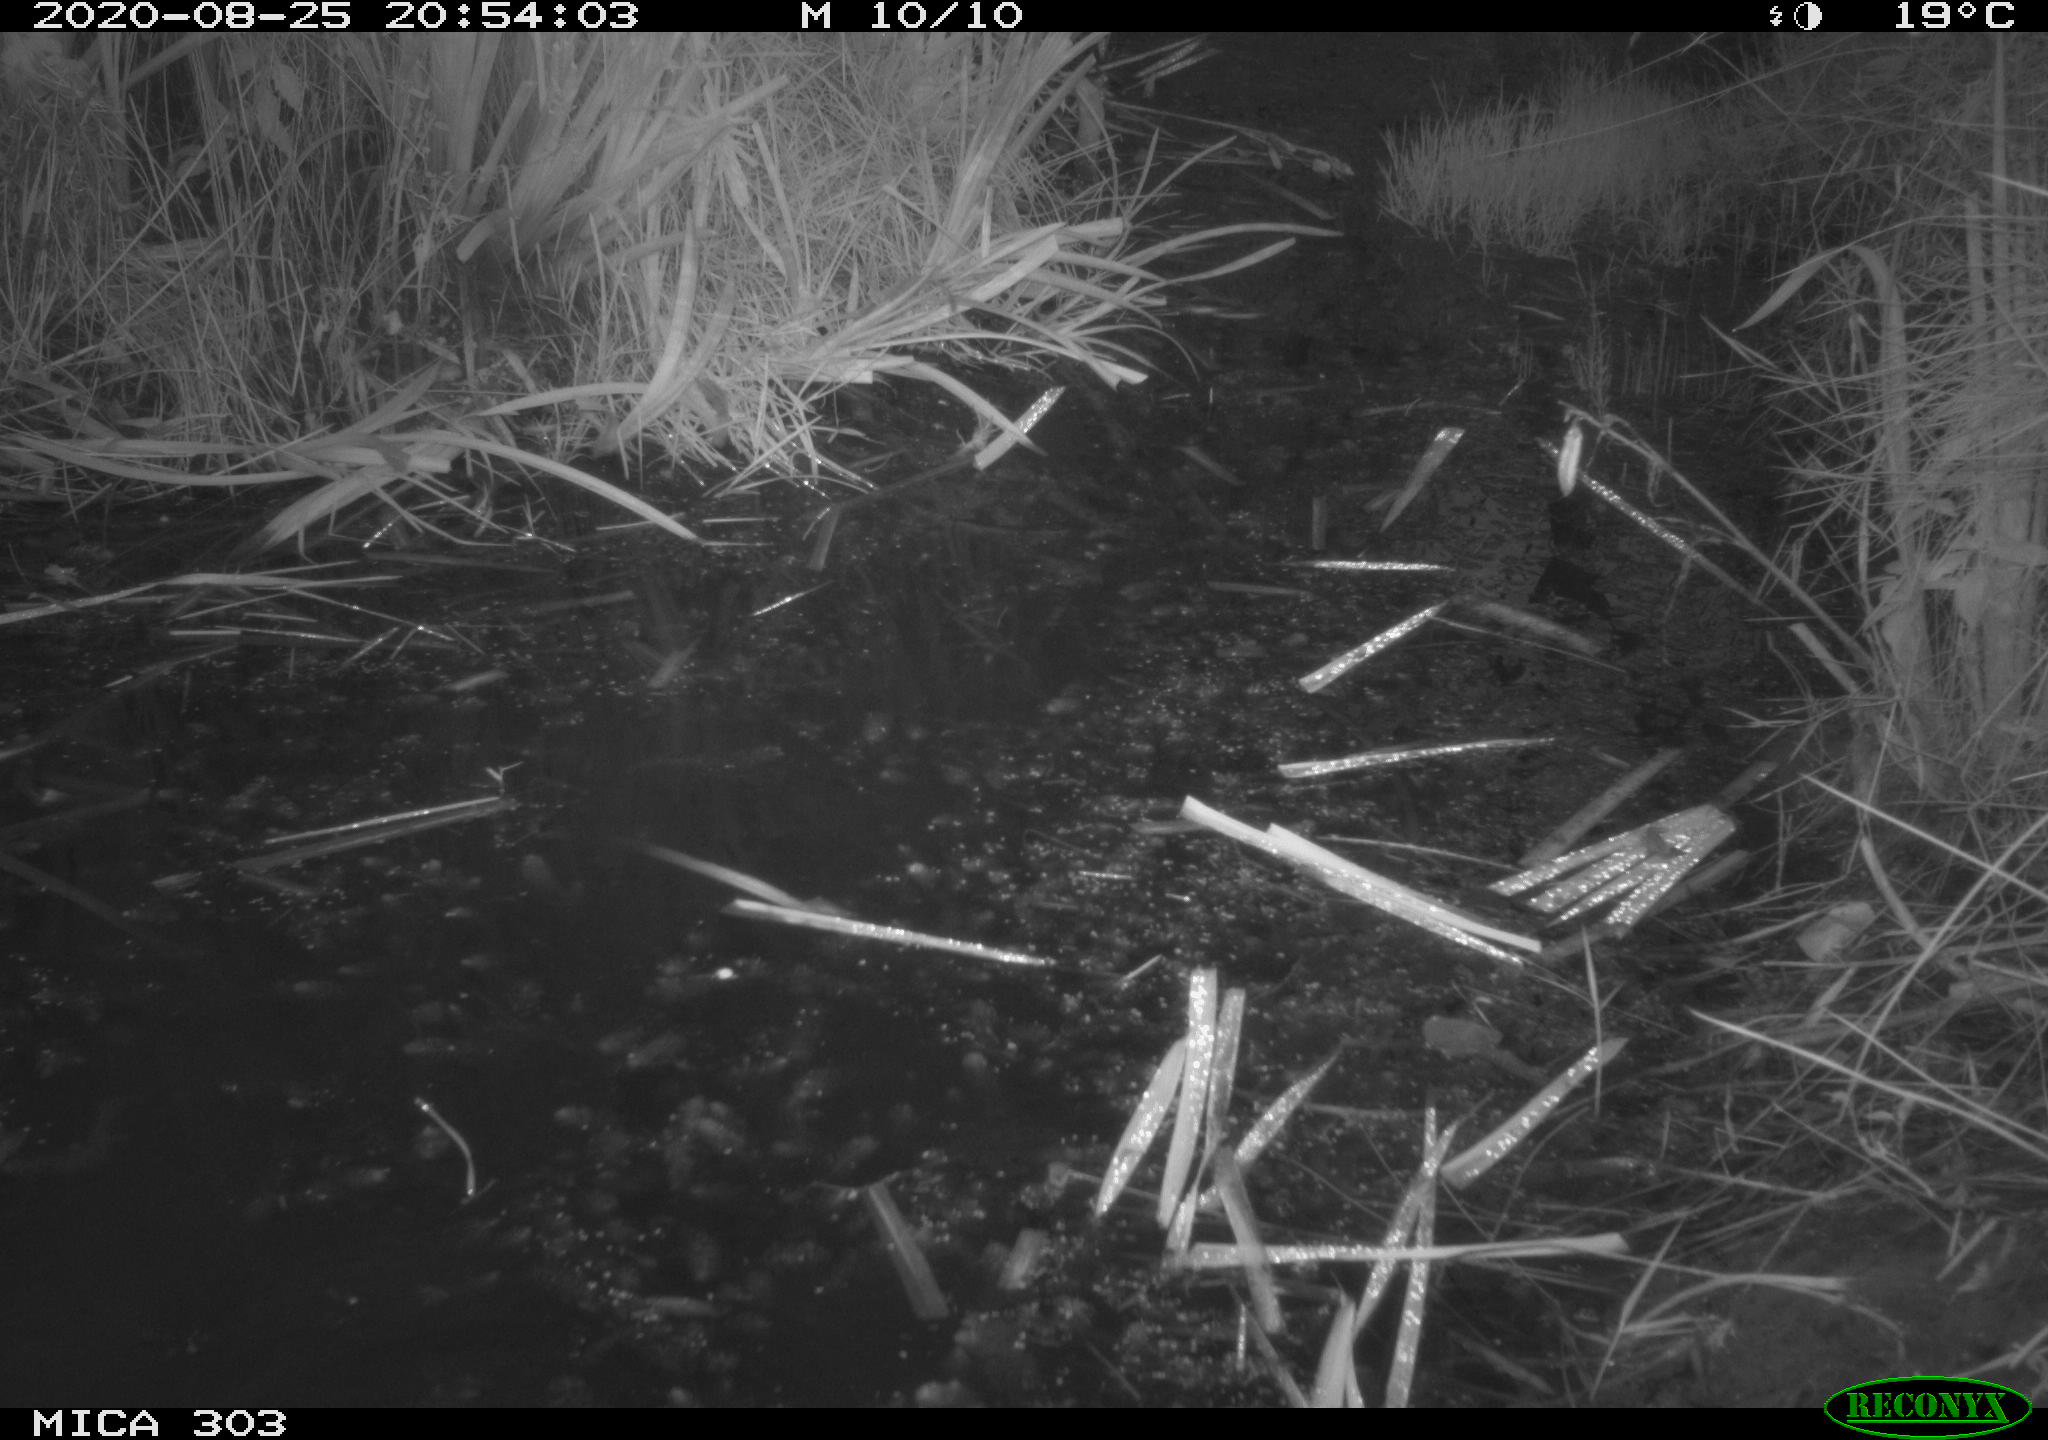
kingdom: Animalia
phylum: Chordata
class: Aves
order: Anseriformes
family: Anatidae
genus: Aix
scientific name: Aix galericulata
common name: Mandarin duck
